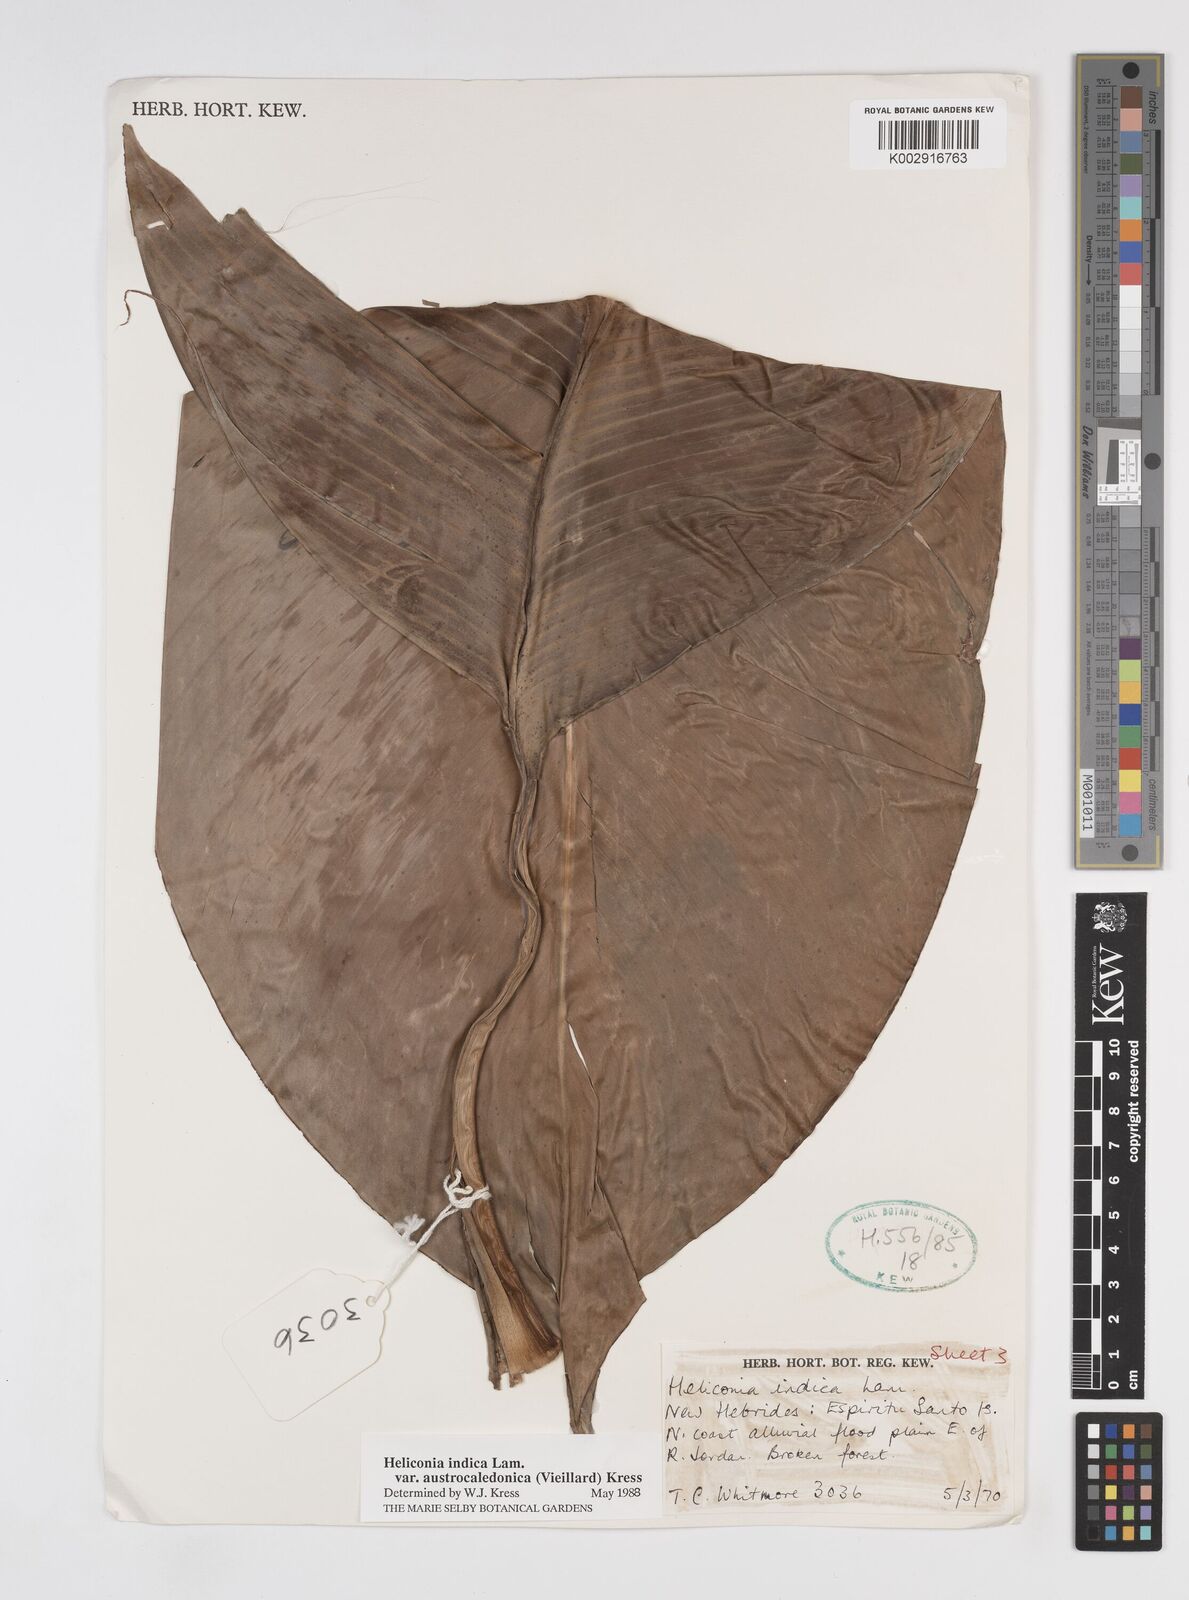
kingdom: Plantae
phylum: Tracheophyta
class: Liliopsida
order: Zingiberales
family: Heliconiaceae
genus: Heliconia
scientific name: Heliconia indica
